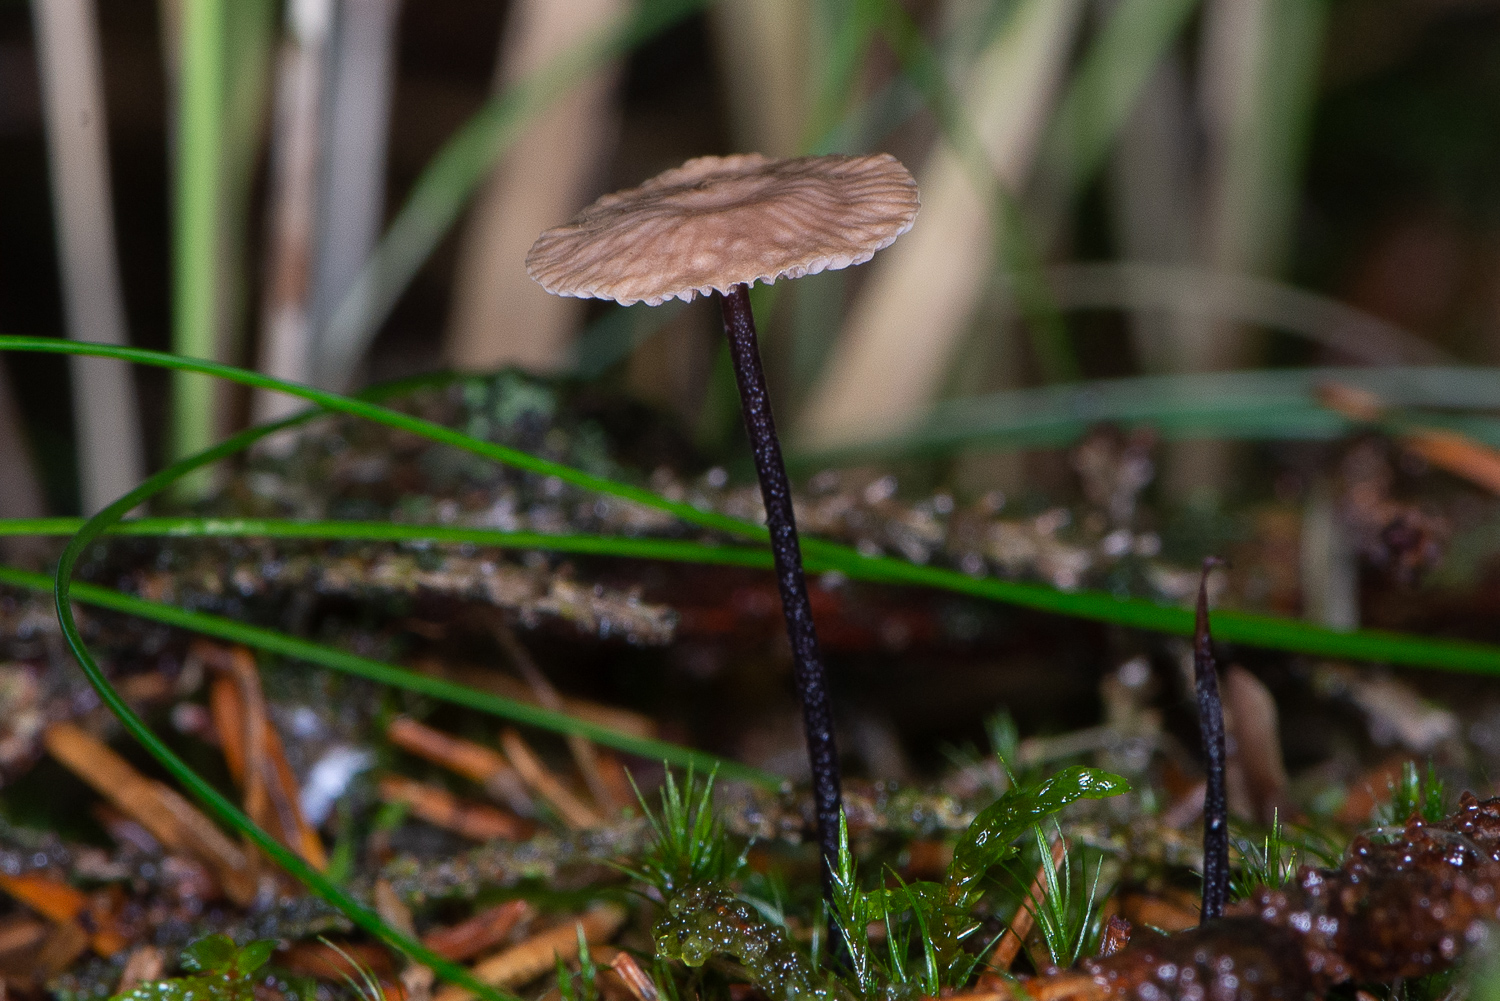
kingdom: Fungi
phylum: Basidiomycota
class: Agaricomycetes
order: Agaricales
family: Omphalotaceae
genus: Paragymnopus
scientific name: Paragymnopus perforans
